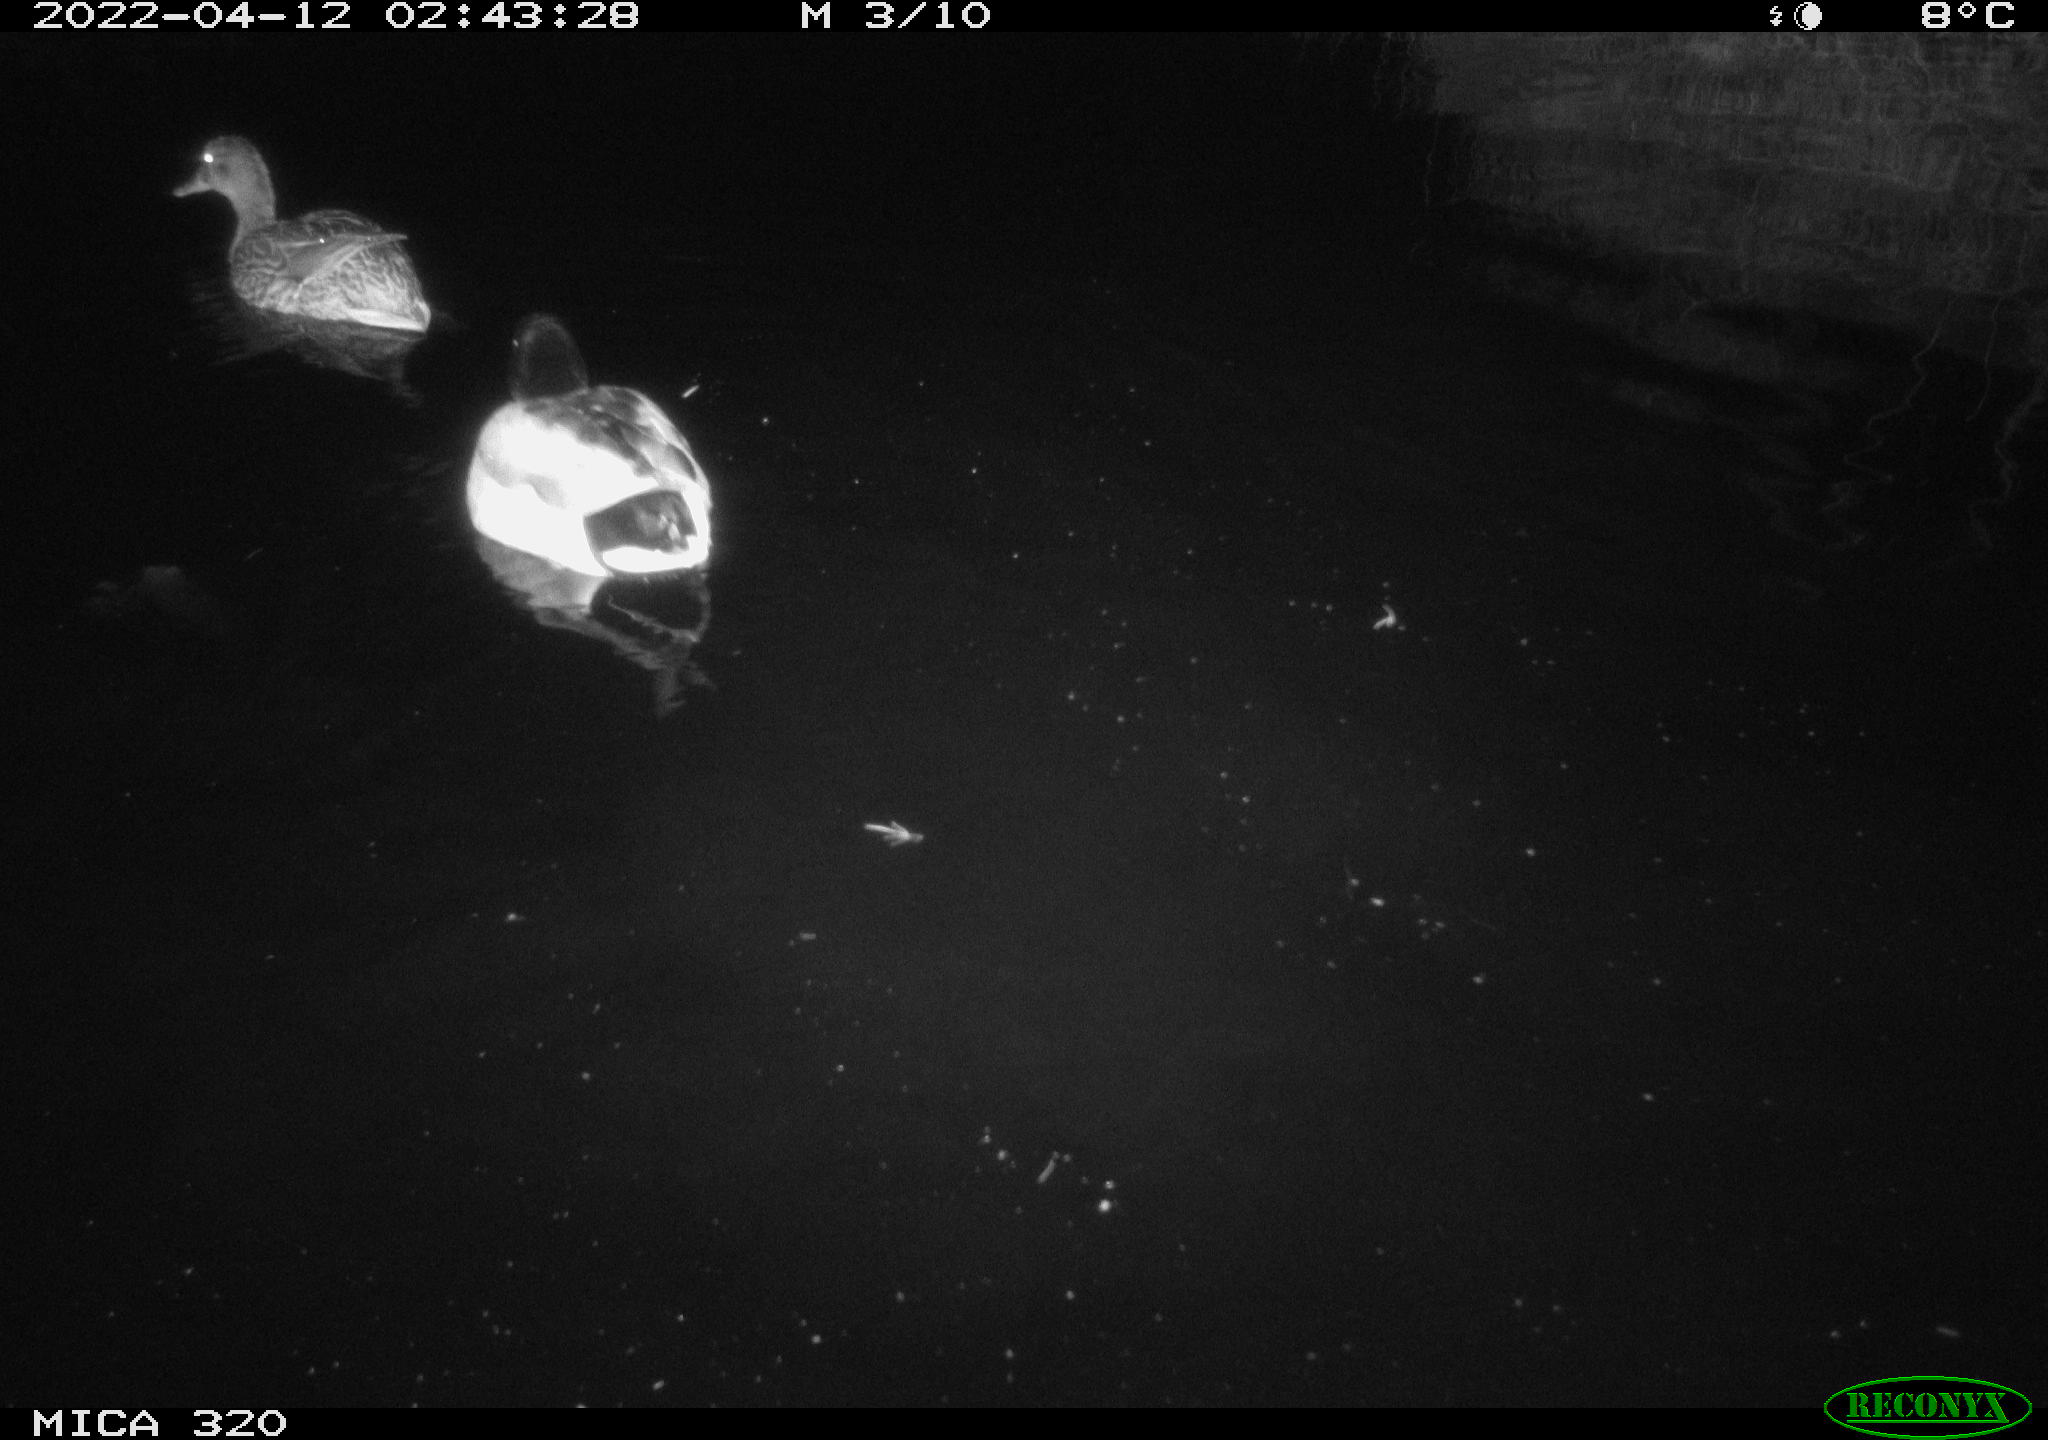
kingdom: Animalia
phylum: Chordata
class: Aves
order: Anseriformes
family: Anatidae
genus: Anas
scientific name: Anas platyrhynchos
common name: Mallard
